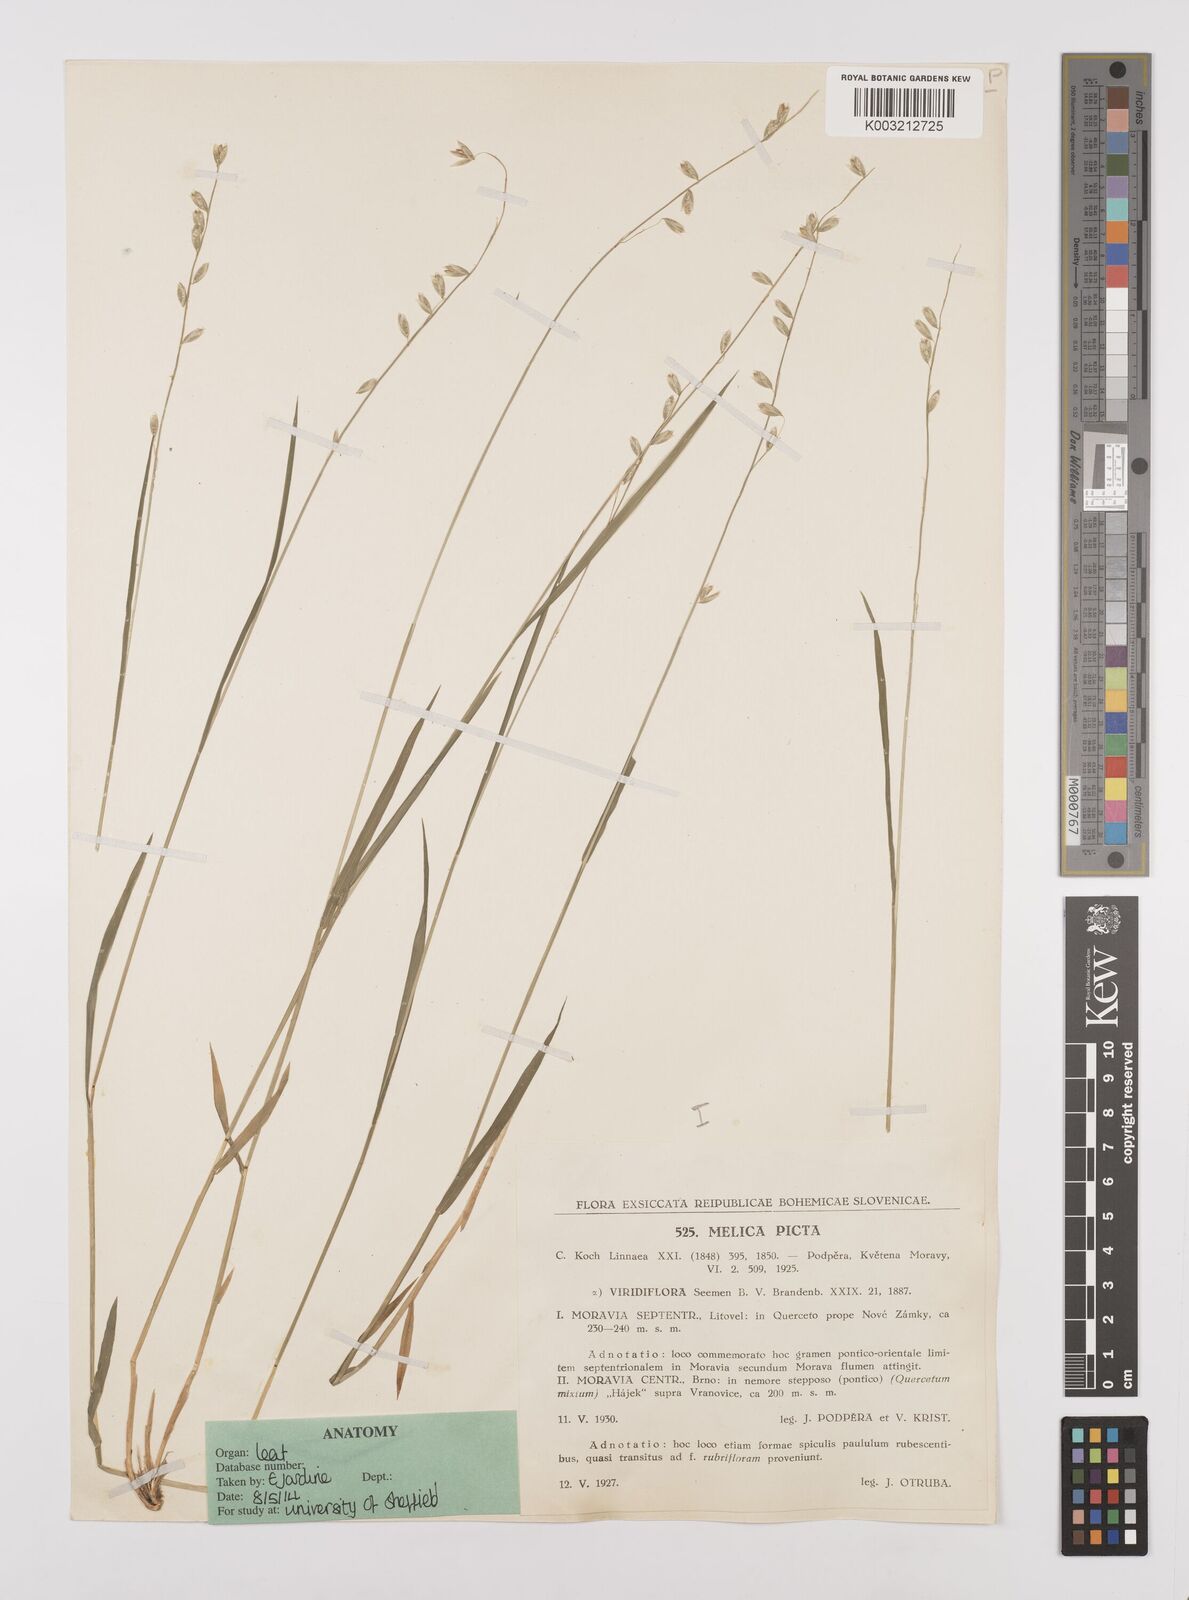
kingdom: Plantae
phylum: Tracheophyta
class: Liliopsida
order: Poales
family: Poaceae
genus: Melica
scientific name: Melica picta
